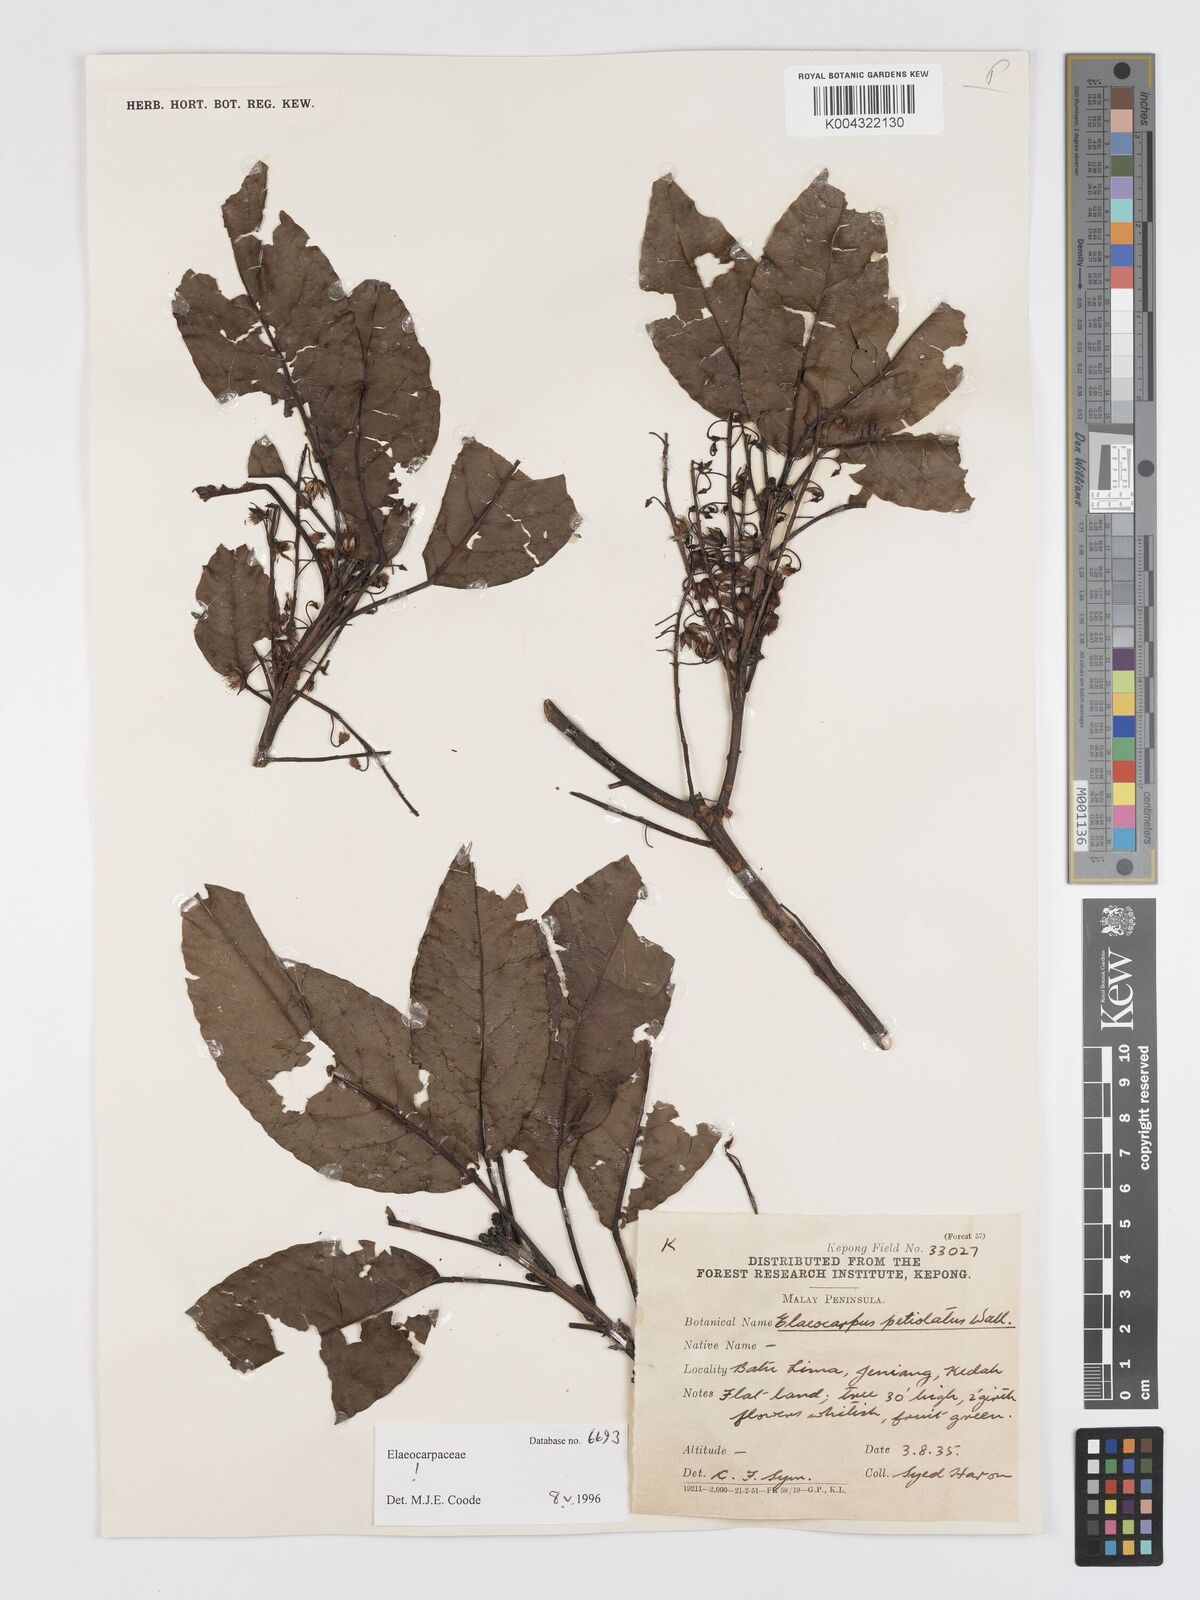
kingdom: Plantae
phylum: Tracheophyta
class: Magnoliopsida
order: Oxalidales
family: Elaeocarpaceae
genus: Elaeocarpus
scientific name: Elaeocarpus petiolatus
